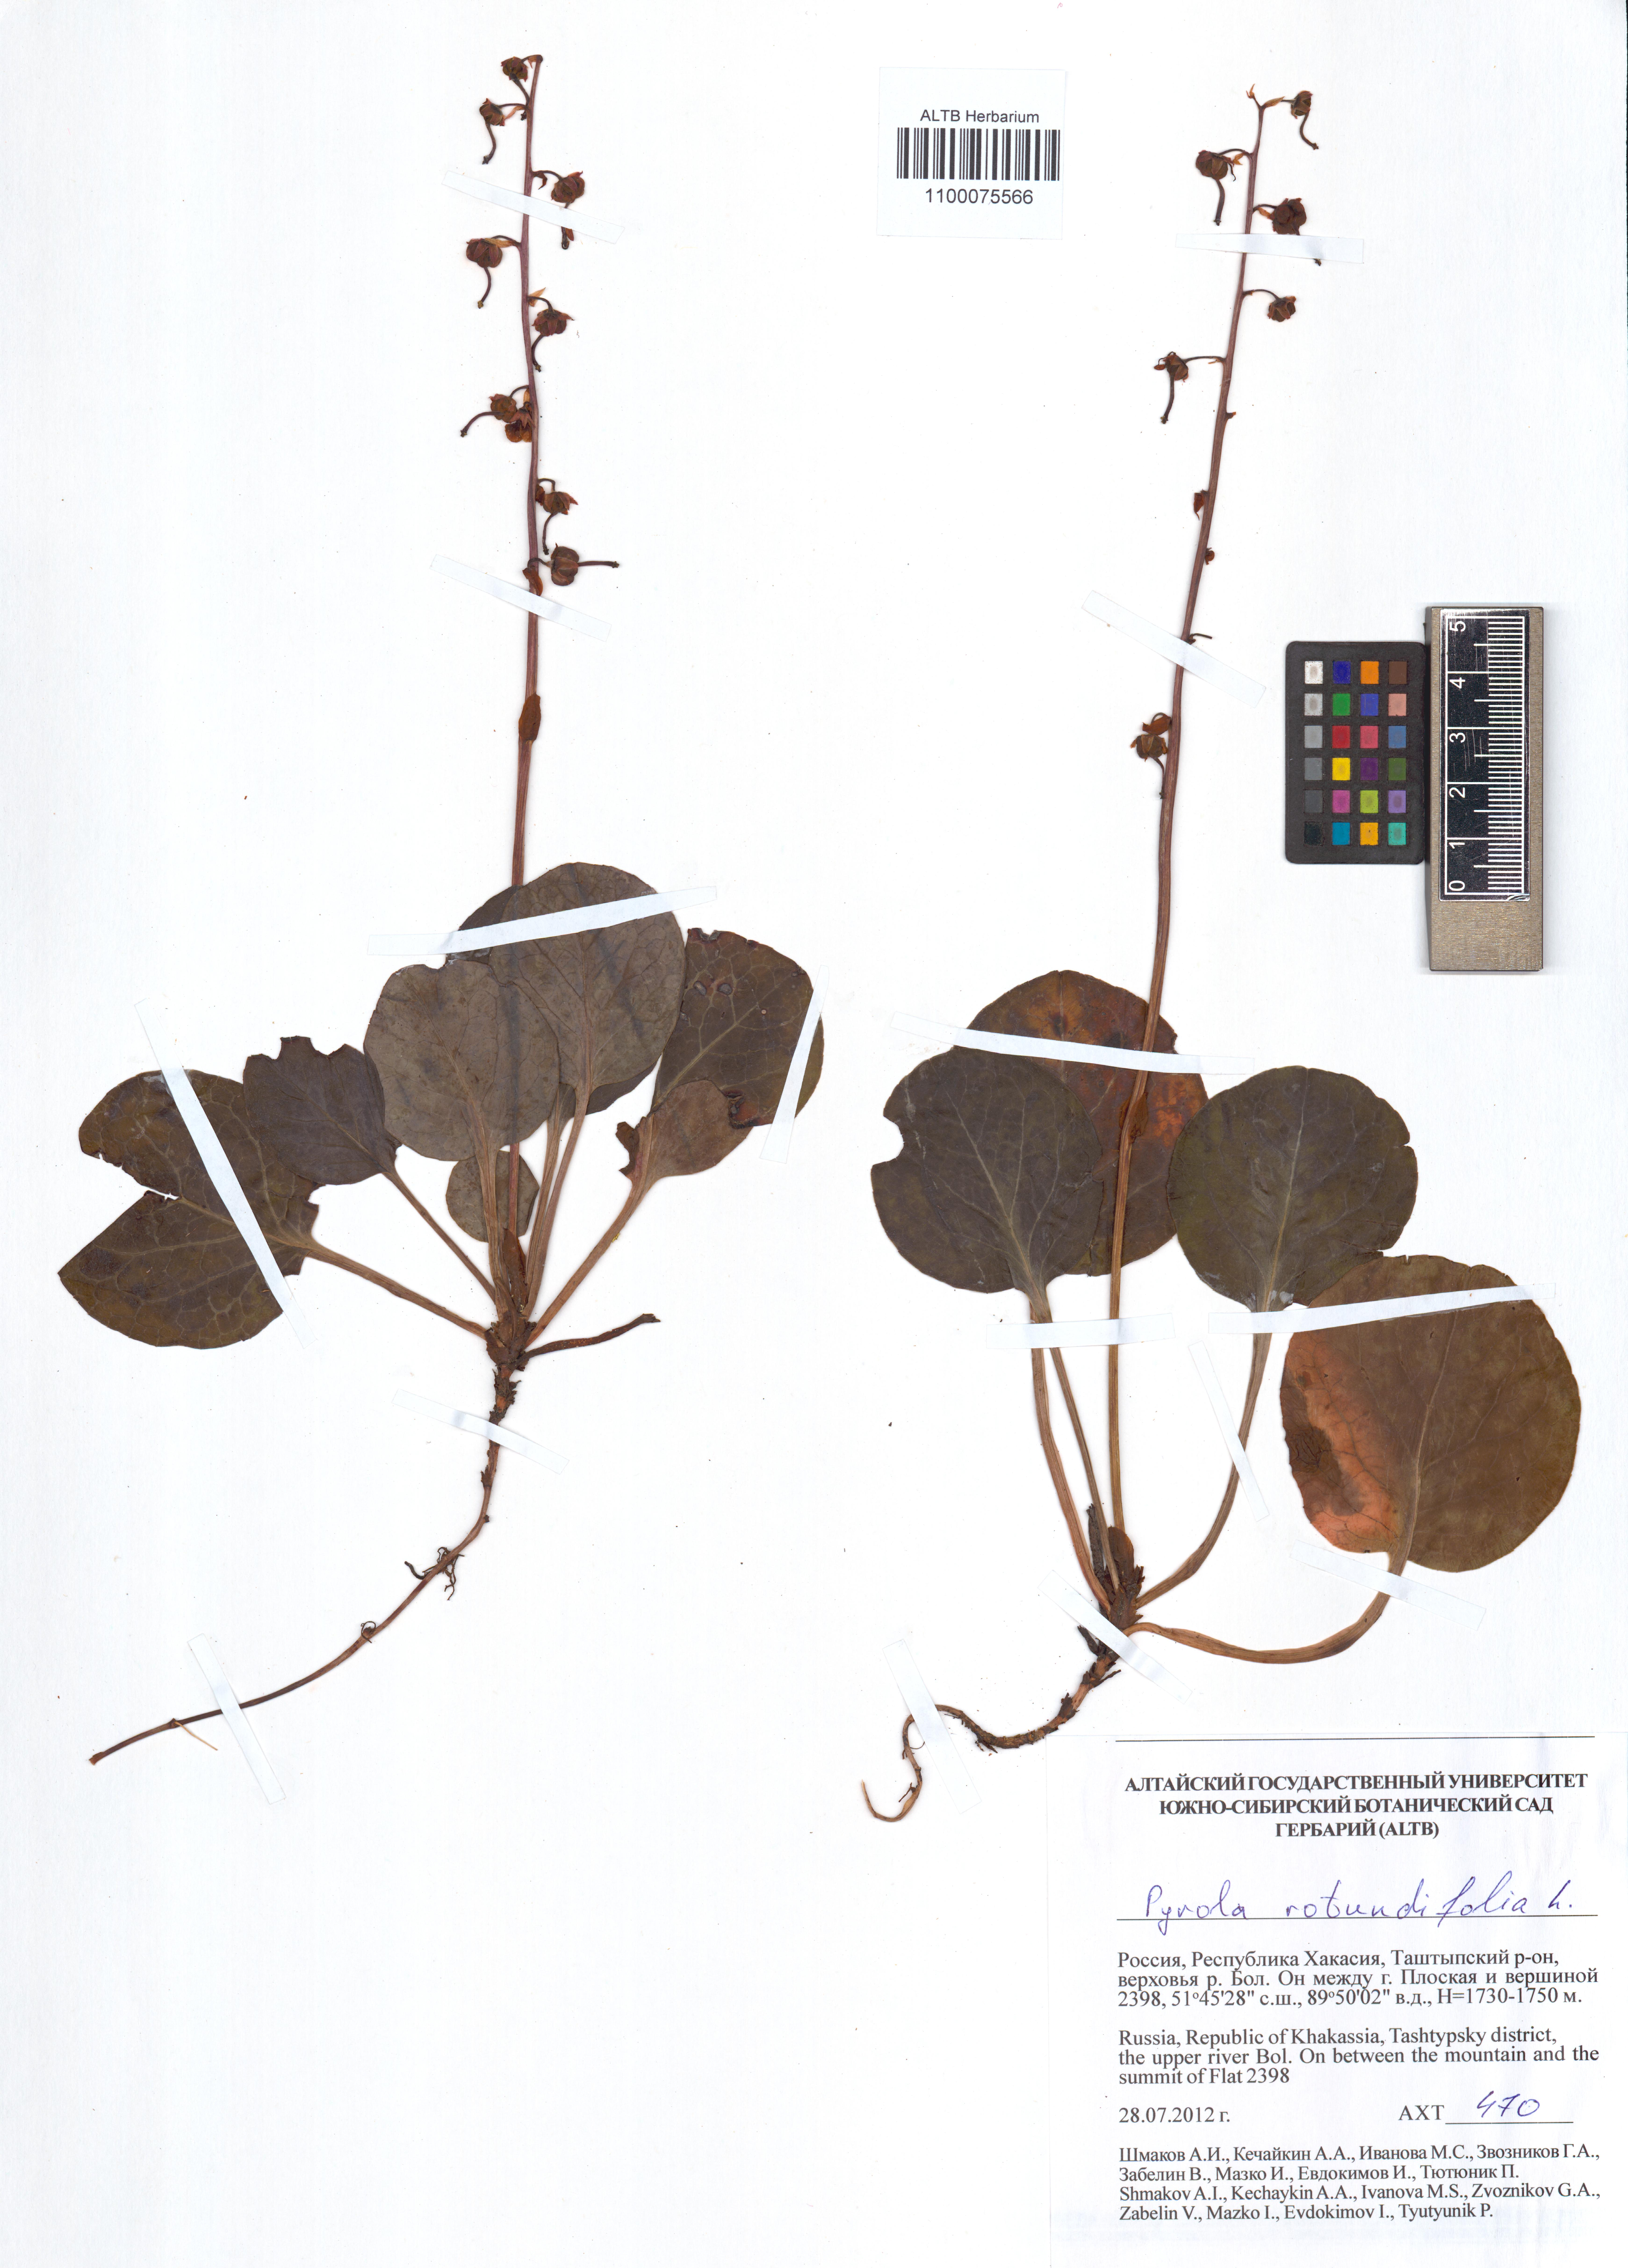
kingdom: Plantae
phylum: Tracheophyta
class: Magnoliopsida
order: Ericales
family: Ericaceae
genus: Pyrola
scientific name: Pyrola rotundifolia
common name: Round-leaved wintergreen
